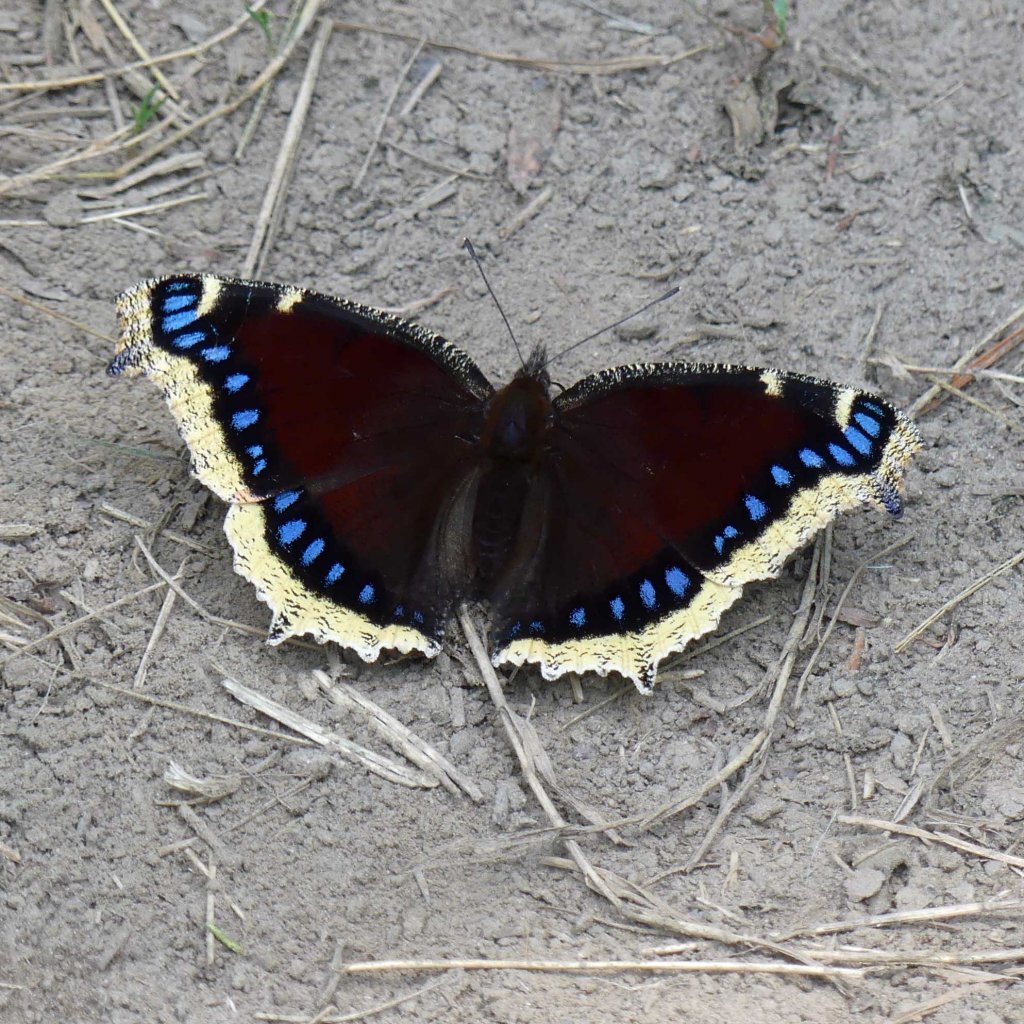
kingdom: Animalia
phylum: Arthropoda
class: Insecta
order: Lepidoptera
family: Nymphalidae
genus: Nymphalis
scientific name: Nymphalis antiopa
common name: Mourning Cloak
